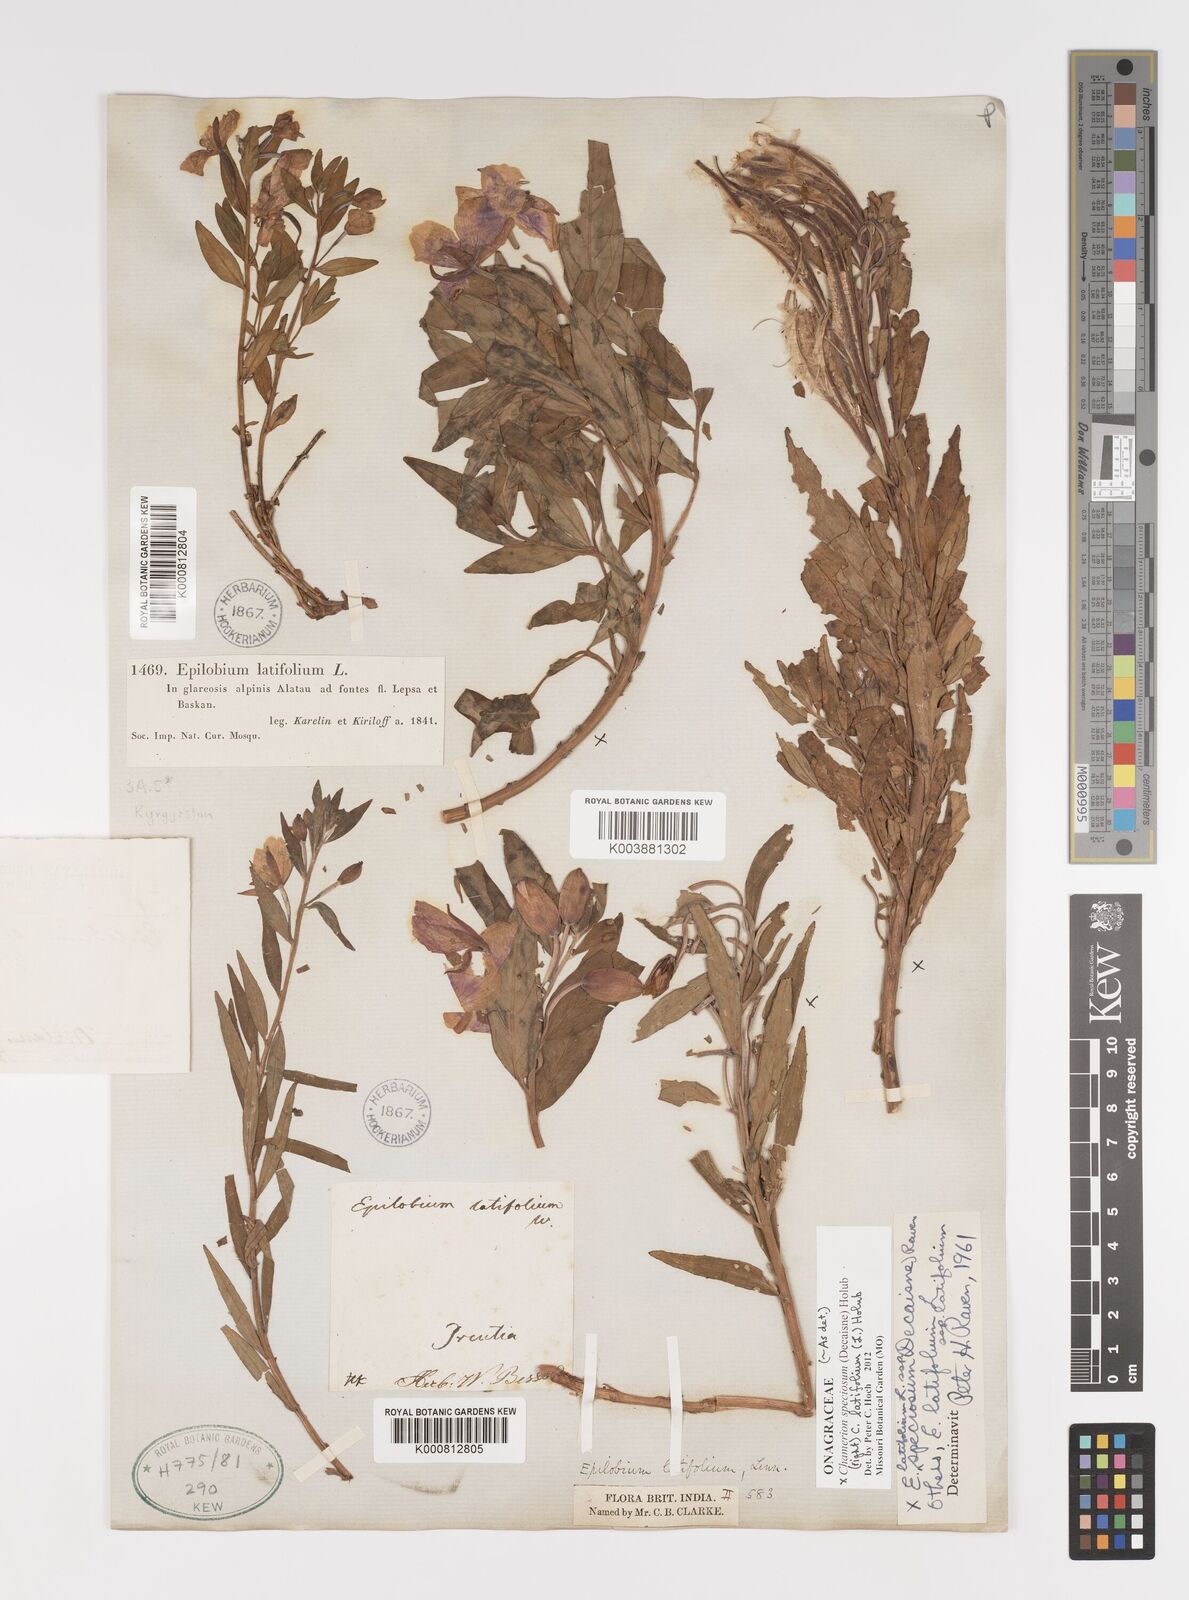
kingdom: Plantae
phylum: Tracheophyta
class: Magnoliopsida
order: Myrtales
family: Onagraceae
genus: Chamaenerion
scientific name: Chamaenerion latifolium
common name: Dwarf fireweed
